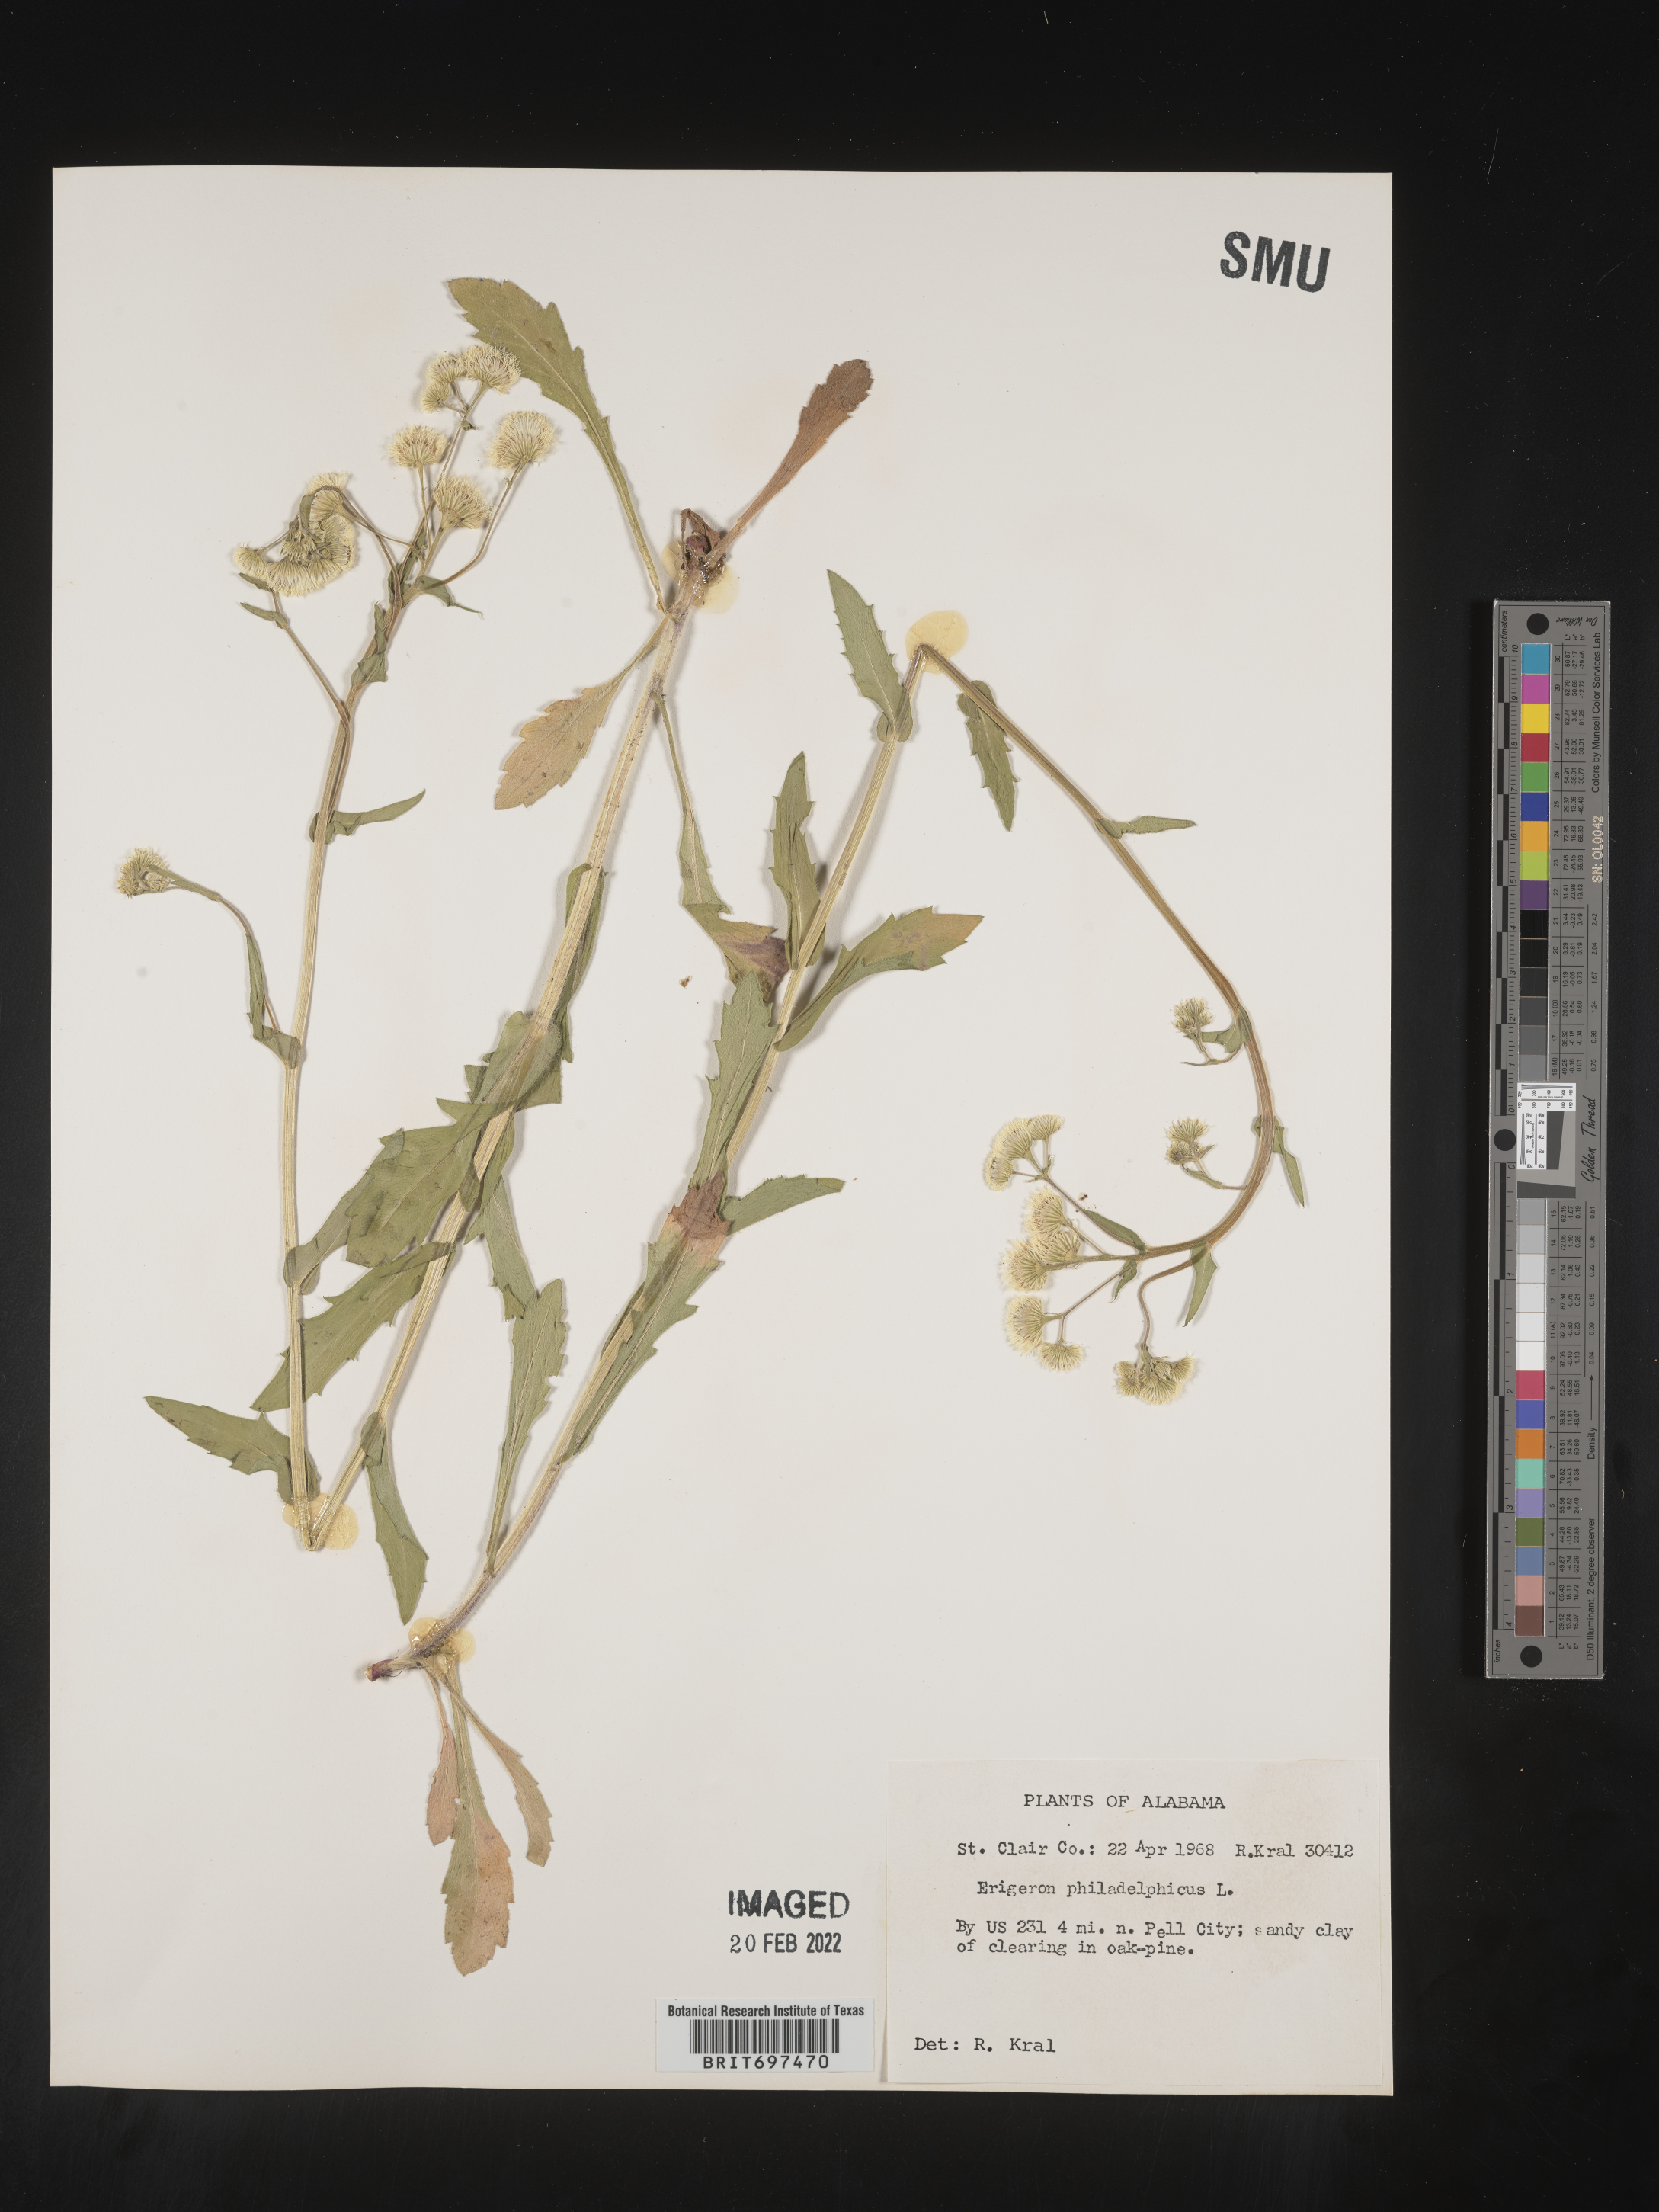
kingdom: Plantae
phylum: Tracheophyta
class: Magnoliopsida
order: Asterales
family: Asteraceae
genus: Erigeron
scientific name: Erigeron philadelphicus
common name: Robin's-plantain
